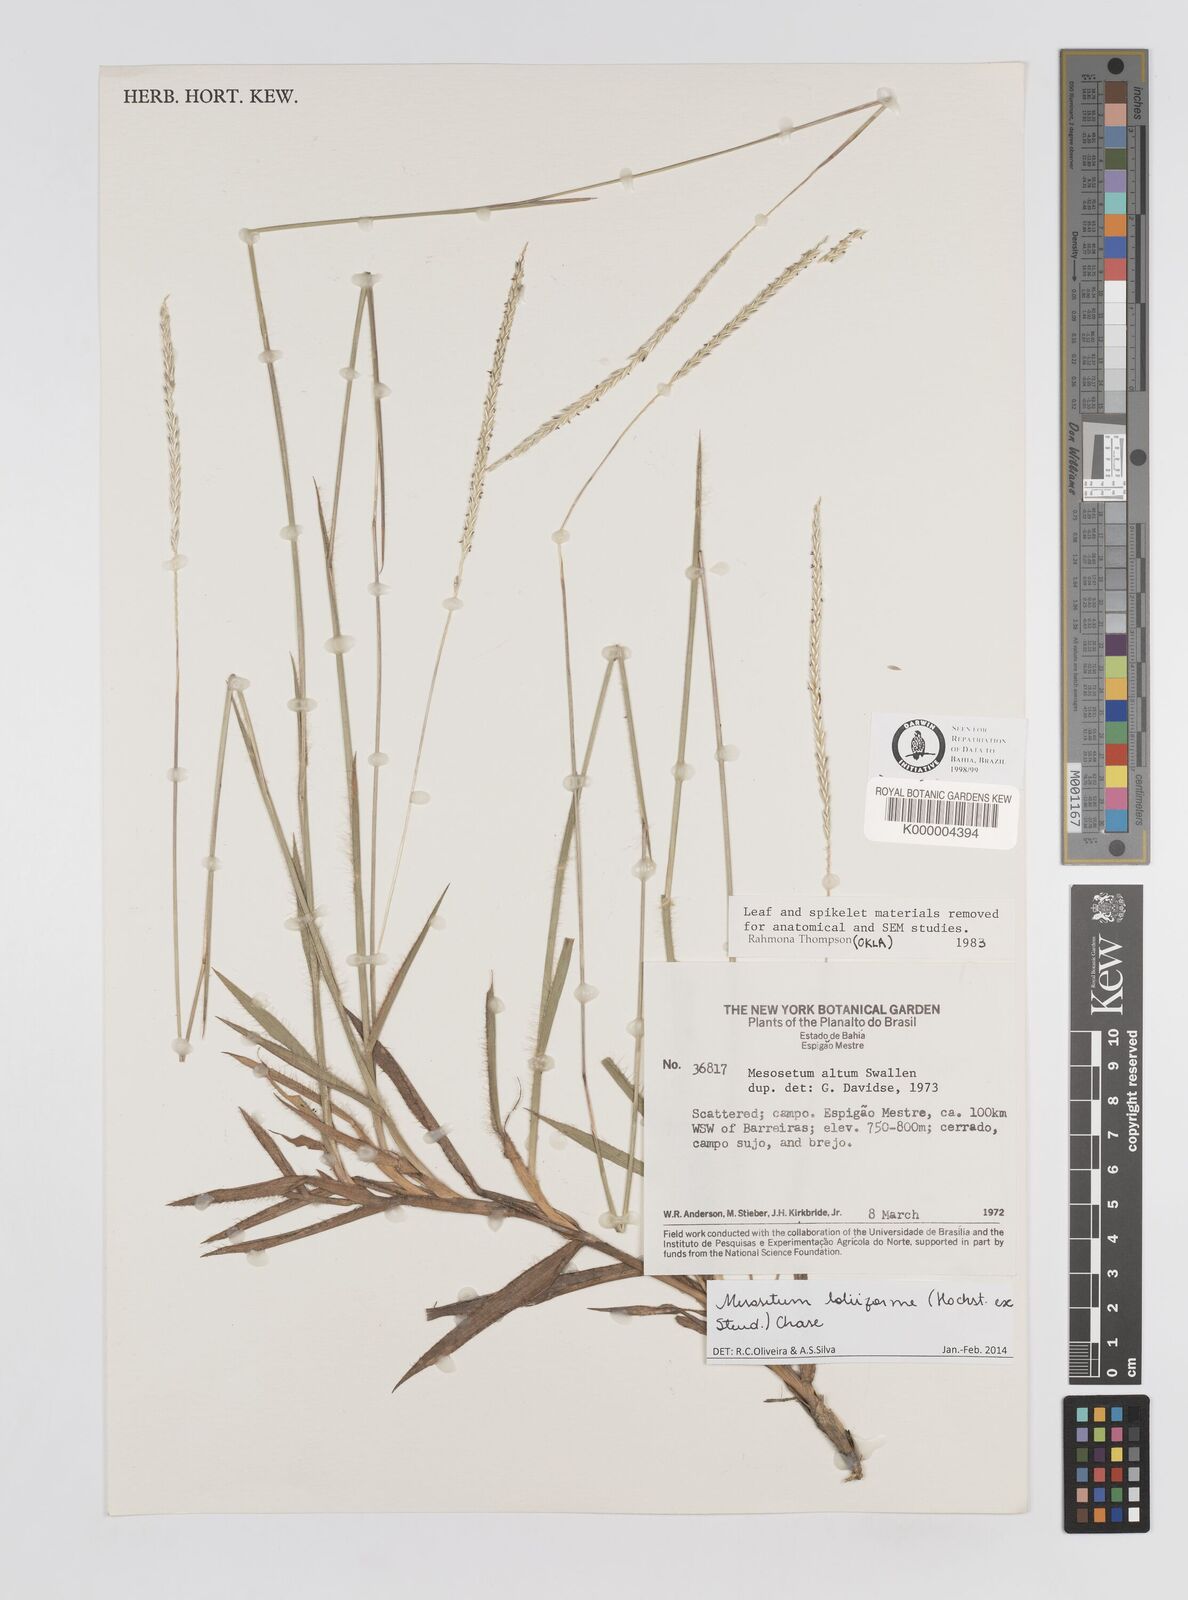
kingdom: Plantae
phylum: Tracheophyta
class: Liliopsida
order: Poales
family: Poaceae
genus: Mesosetum
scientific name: Mesosetum
